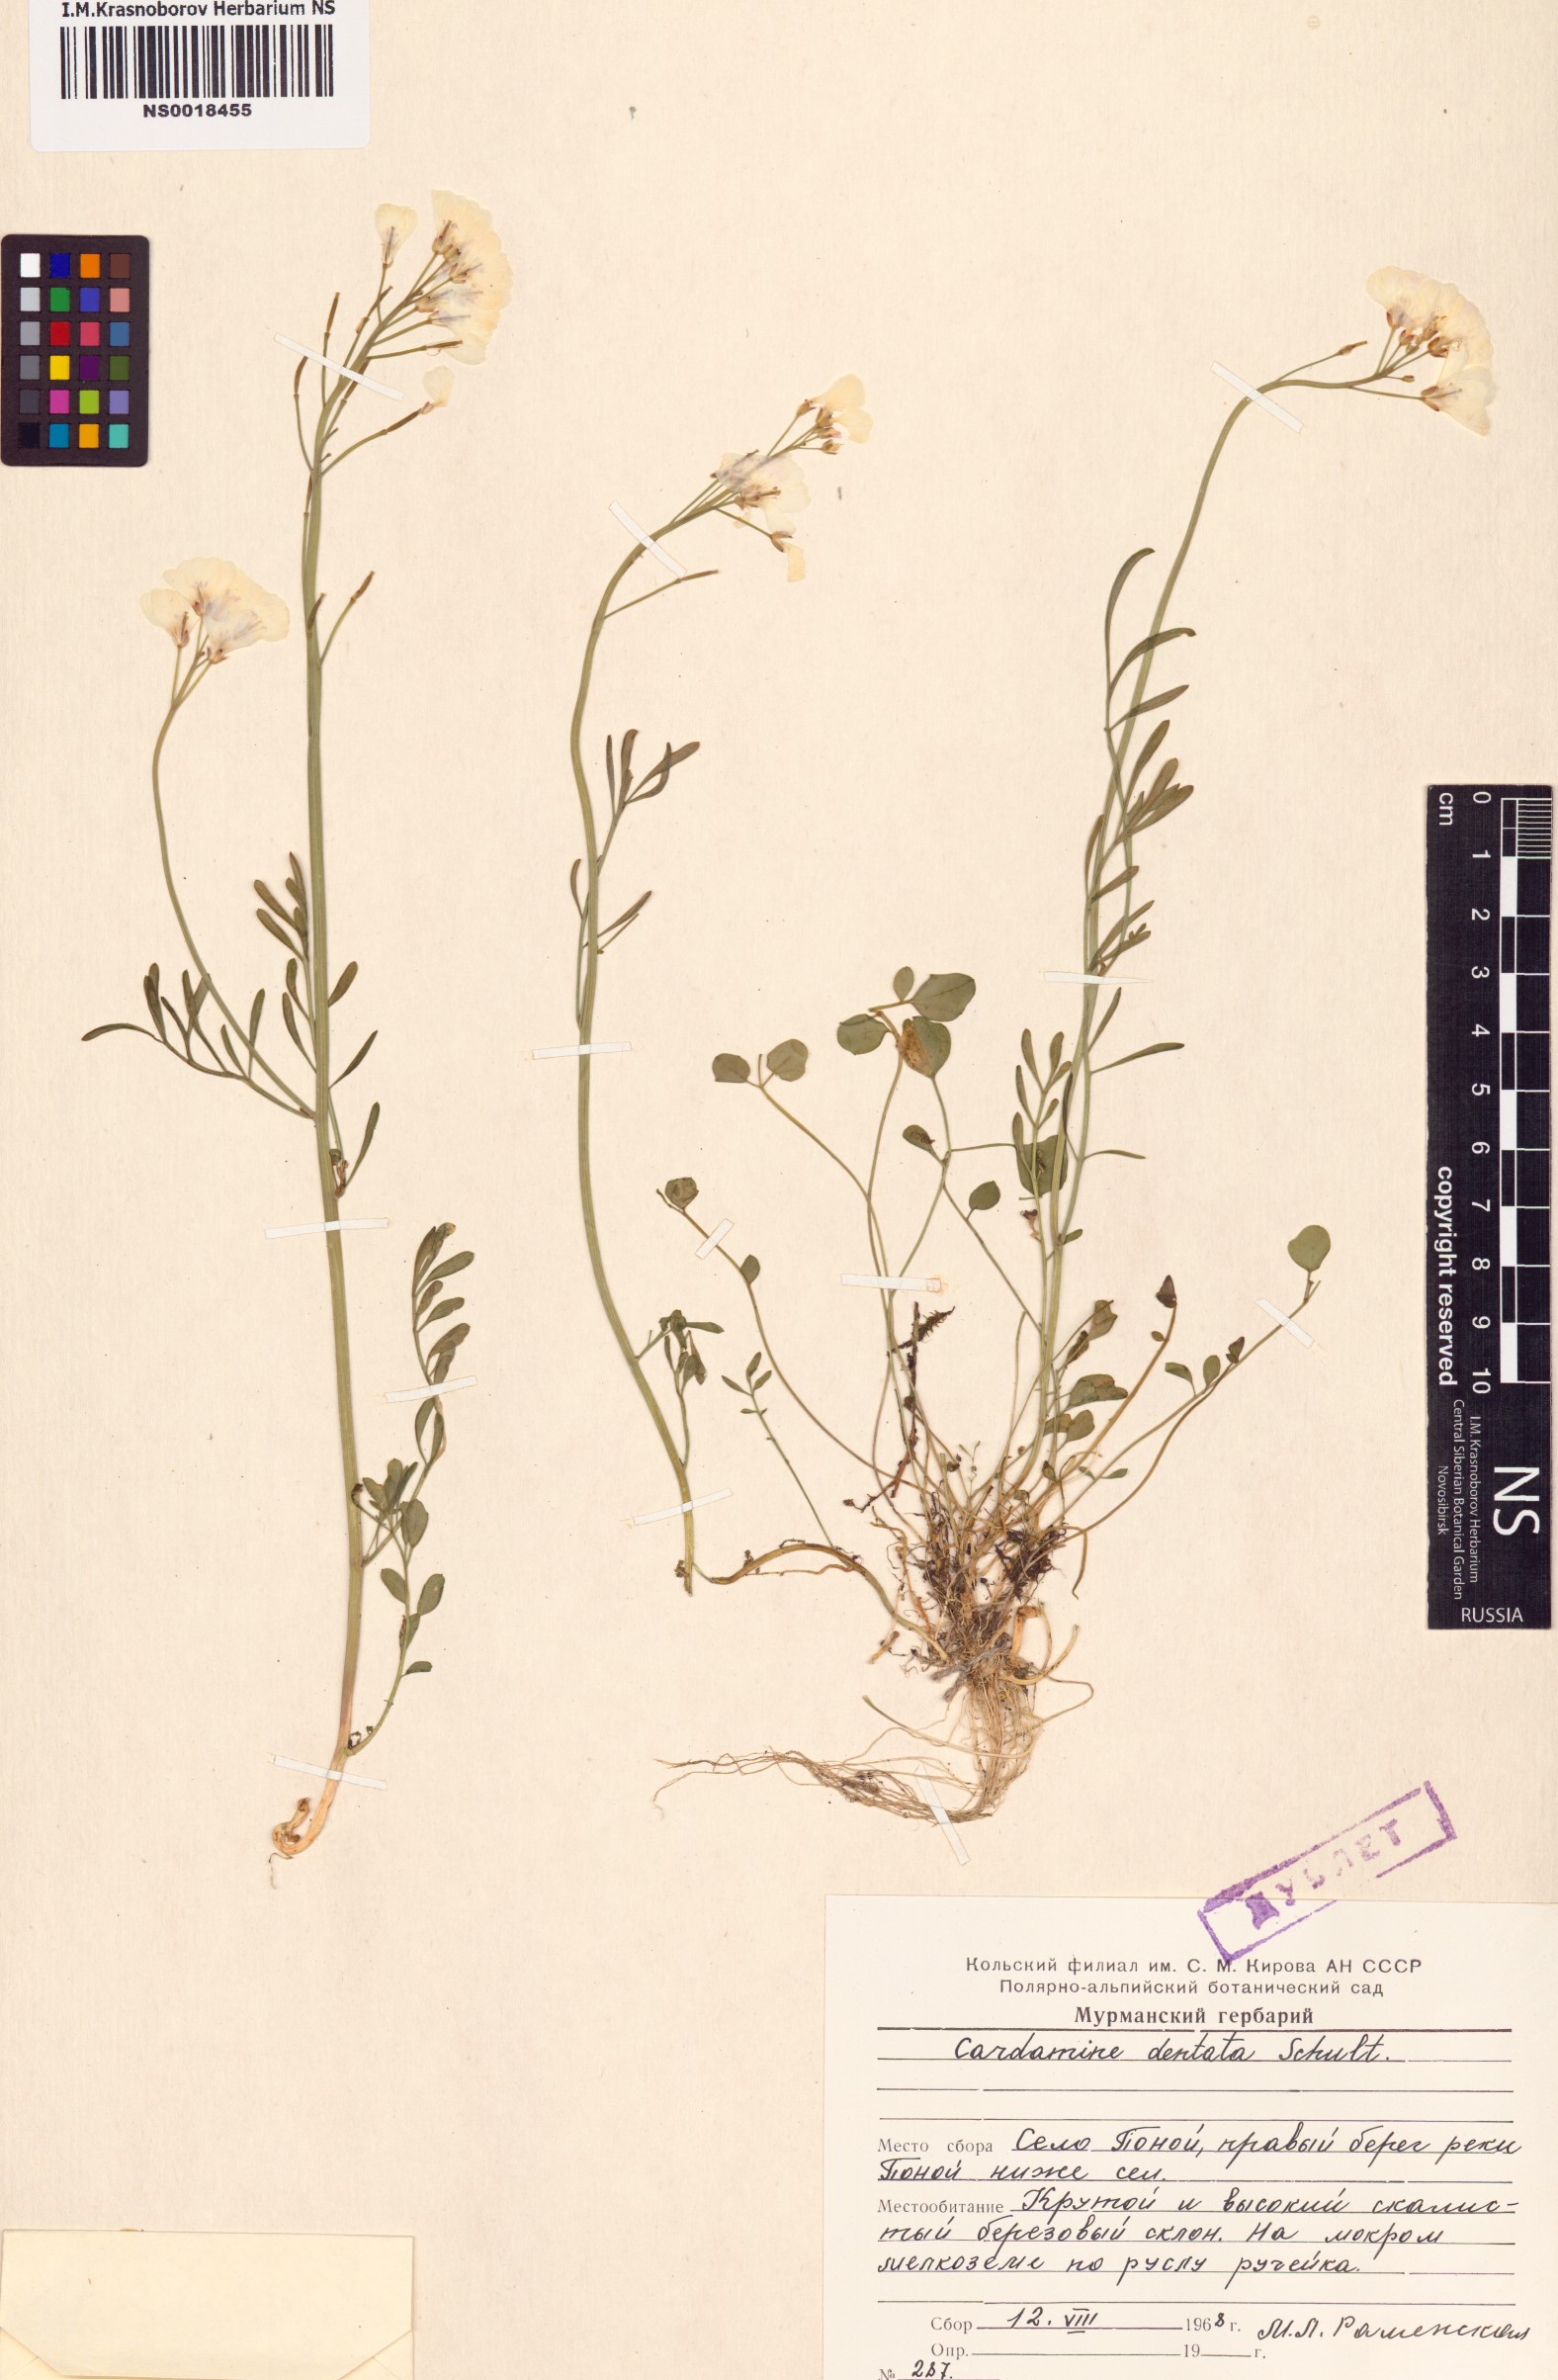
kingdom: Plantae
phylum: Tracheophyta
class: Magnoliopsida
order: Brassicales
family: Brassicaceae
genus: Cardamine
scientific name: Cardamine dentata
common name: Toothed bittercress
